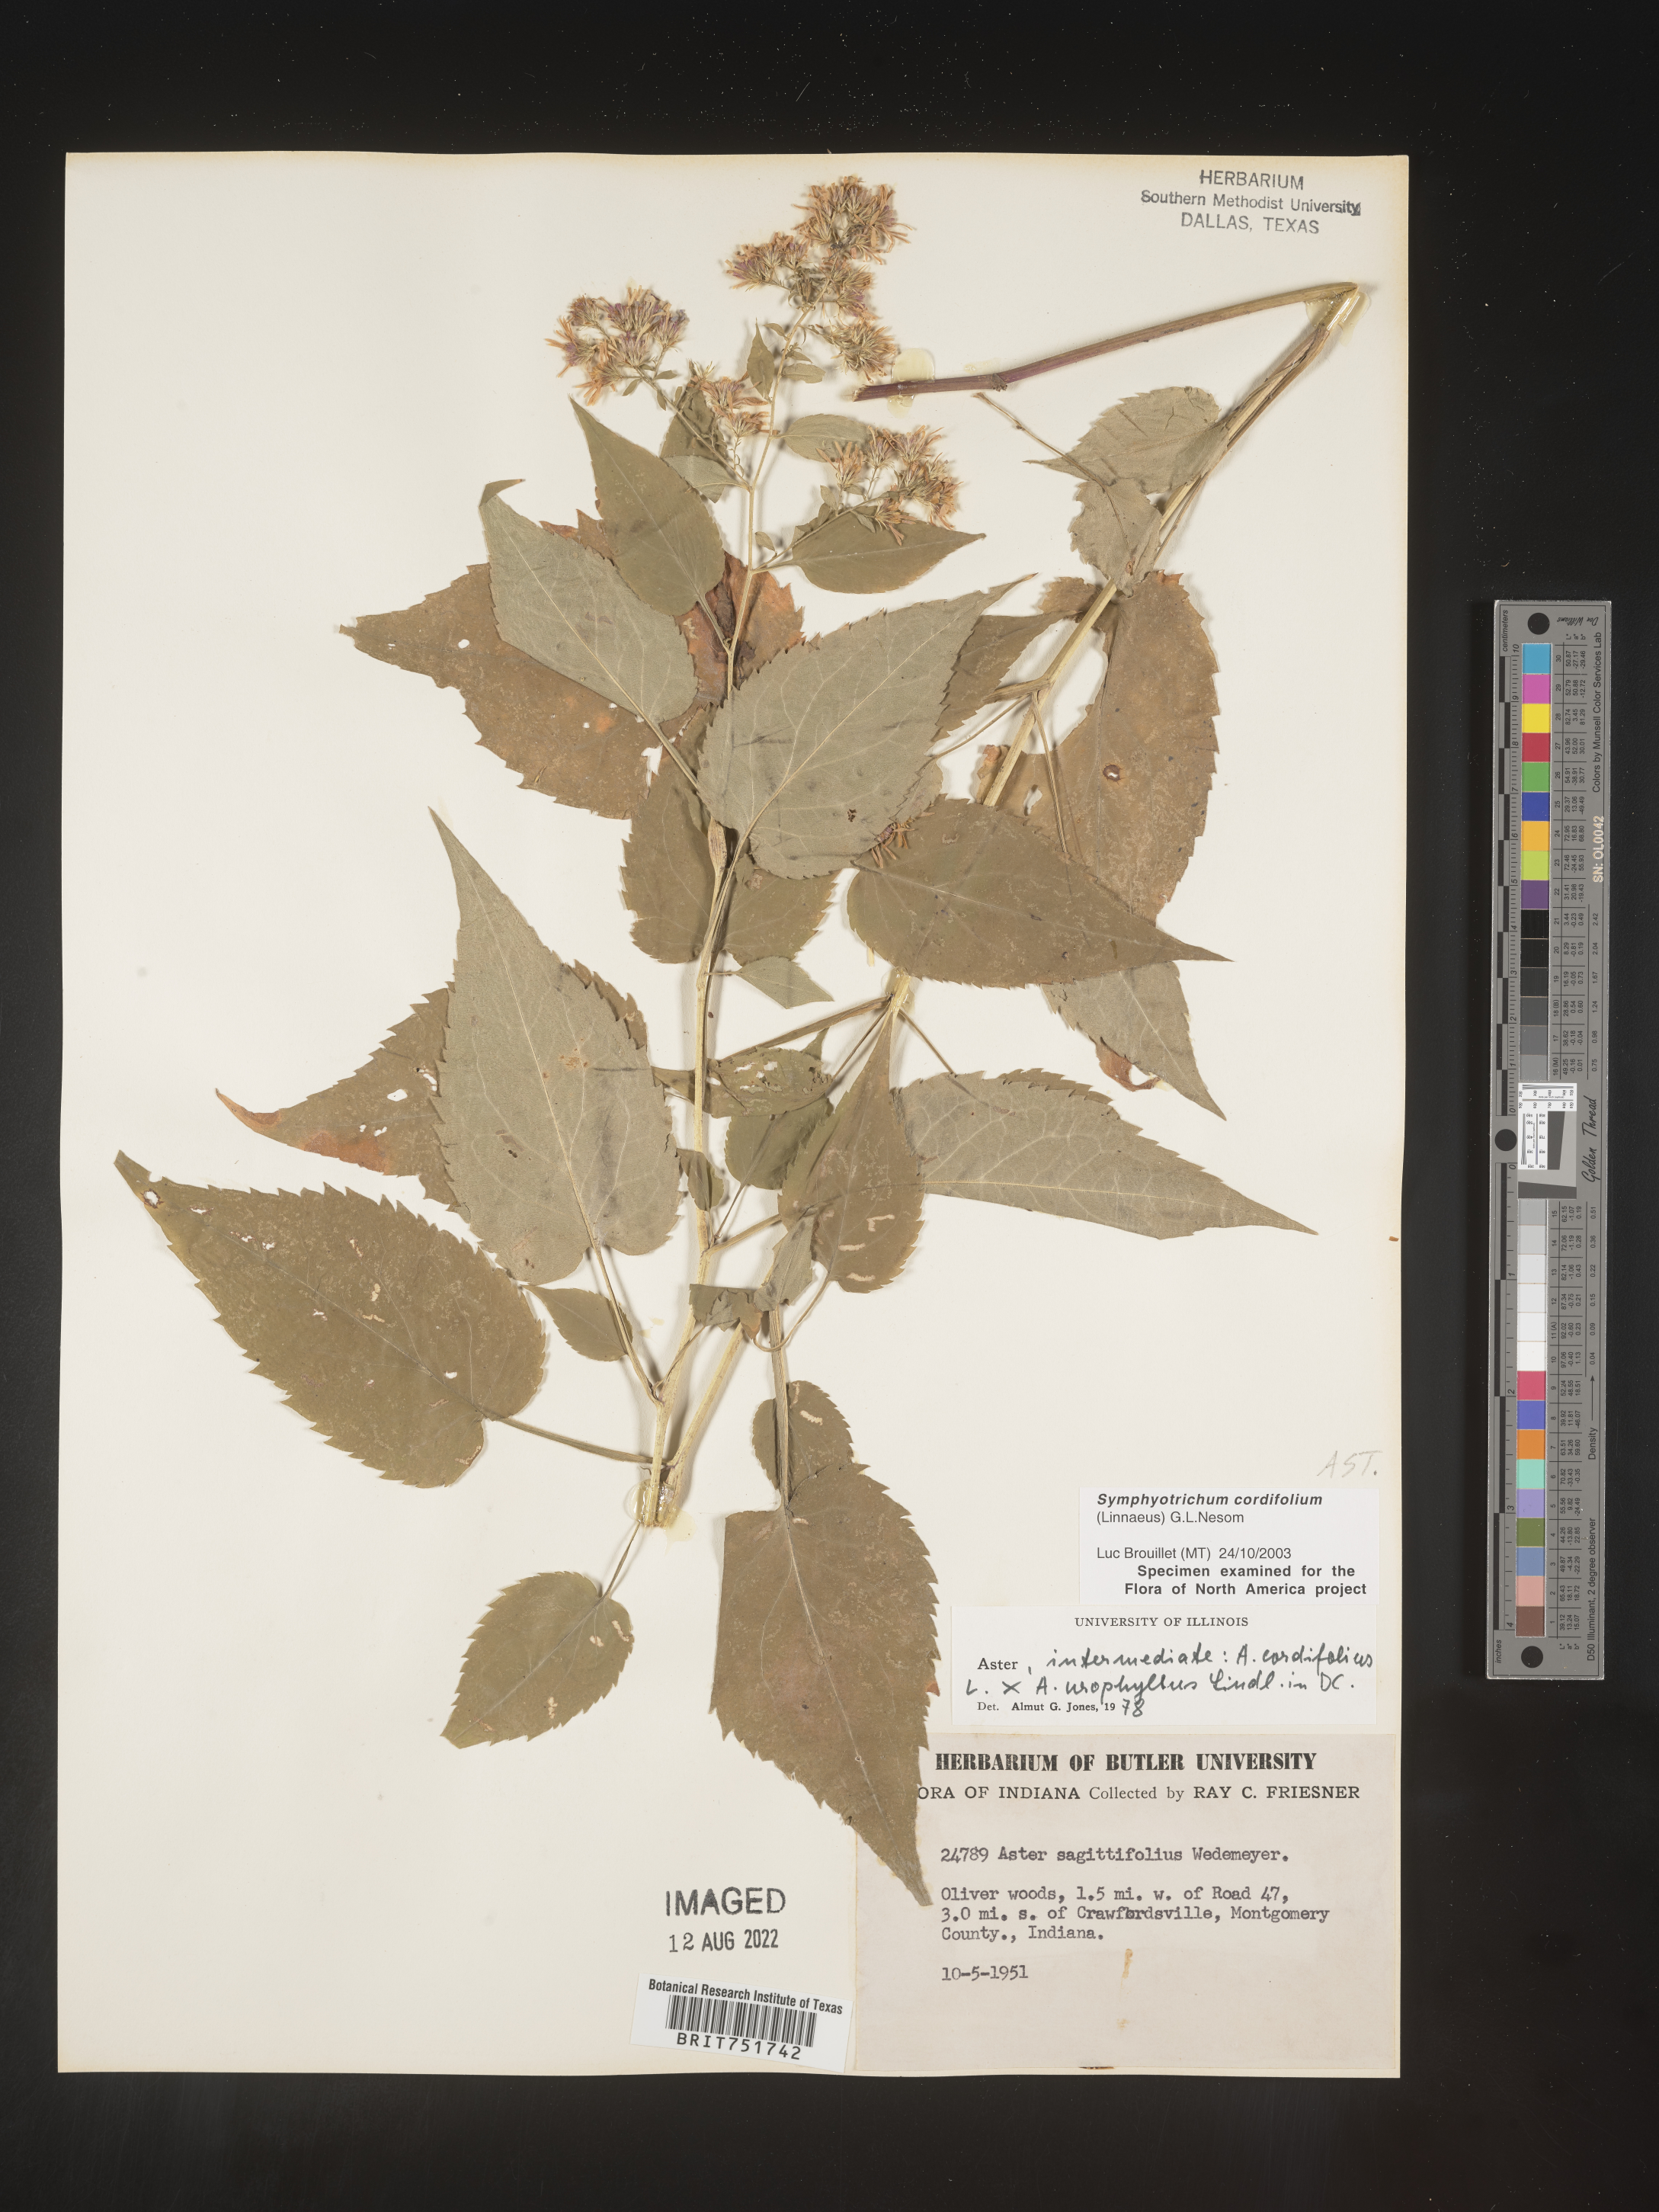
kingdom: Plantae
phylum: Tracheophyta
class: Magnoliopsida
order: Asterales
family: Asteraceae
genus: Symphyotrichum
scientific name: Symphyotrichum cordifolium
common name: Beeweed
